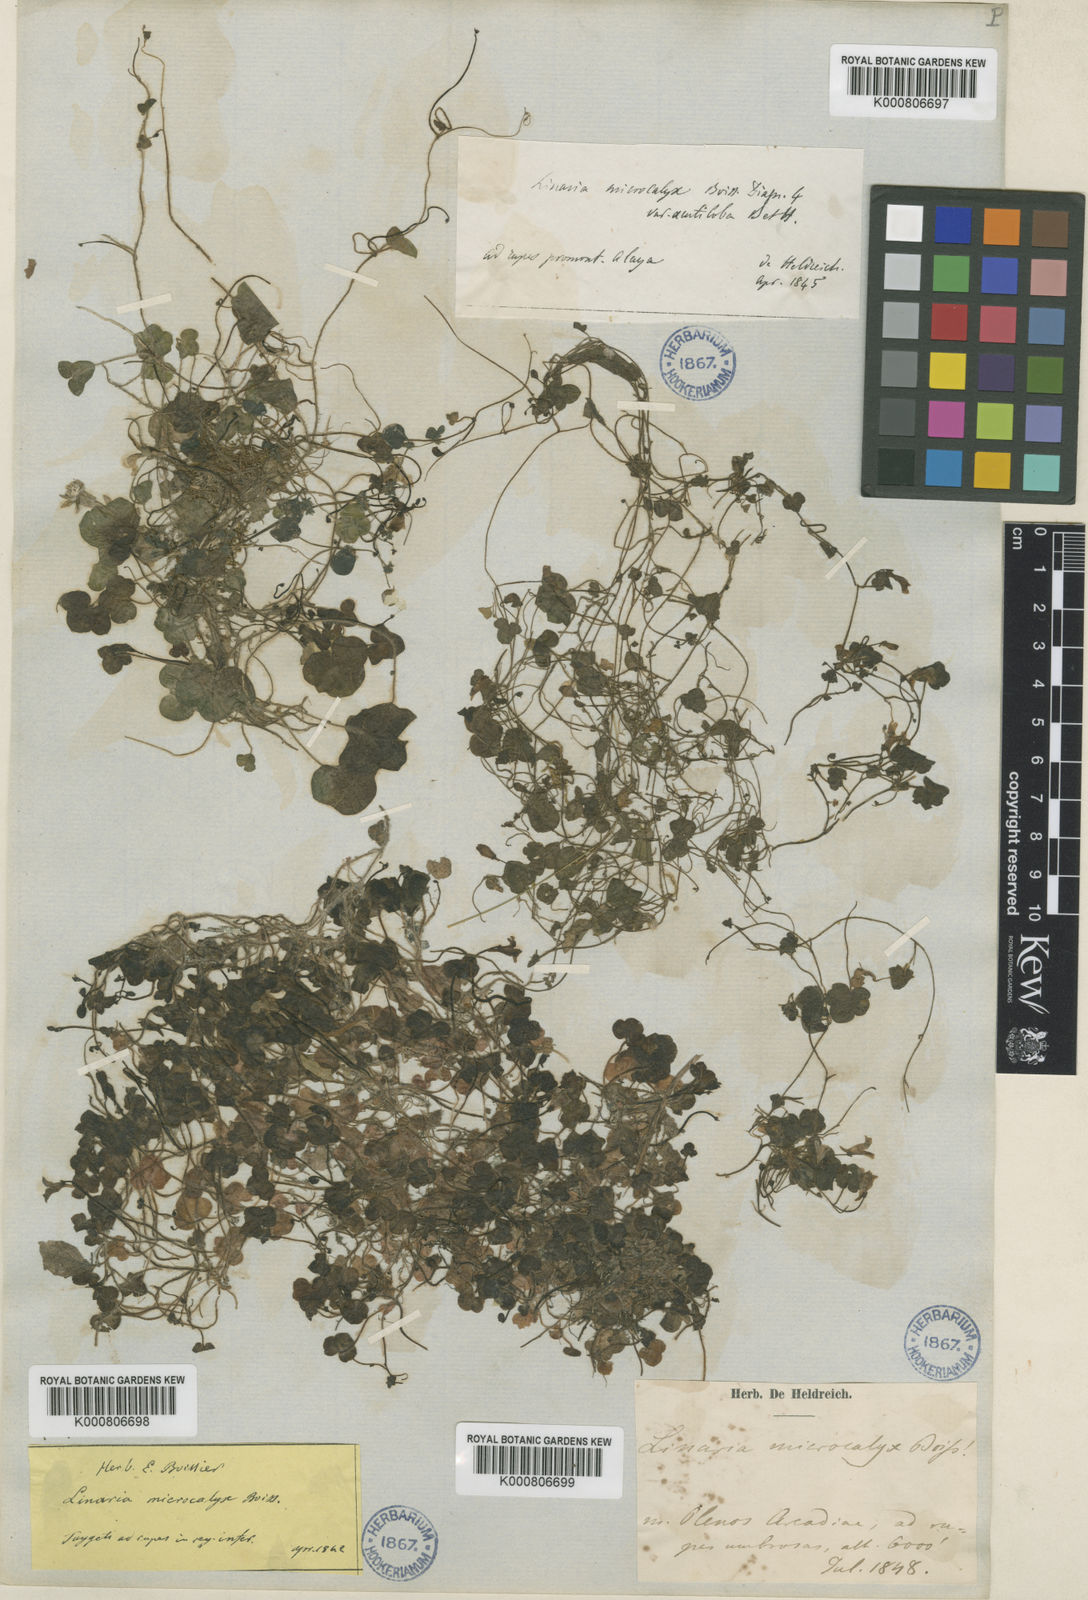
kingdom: Plantae
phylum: Tracheophyta
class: Magnoliopsida
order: Lamiales
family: Plantaginaceae
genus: Cymbalaria
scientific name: Cymbalaria microcalyx
